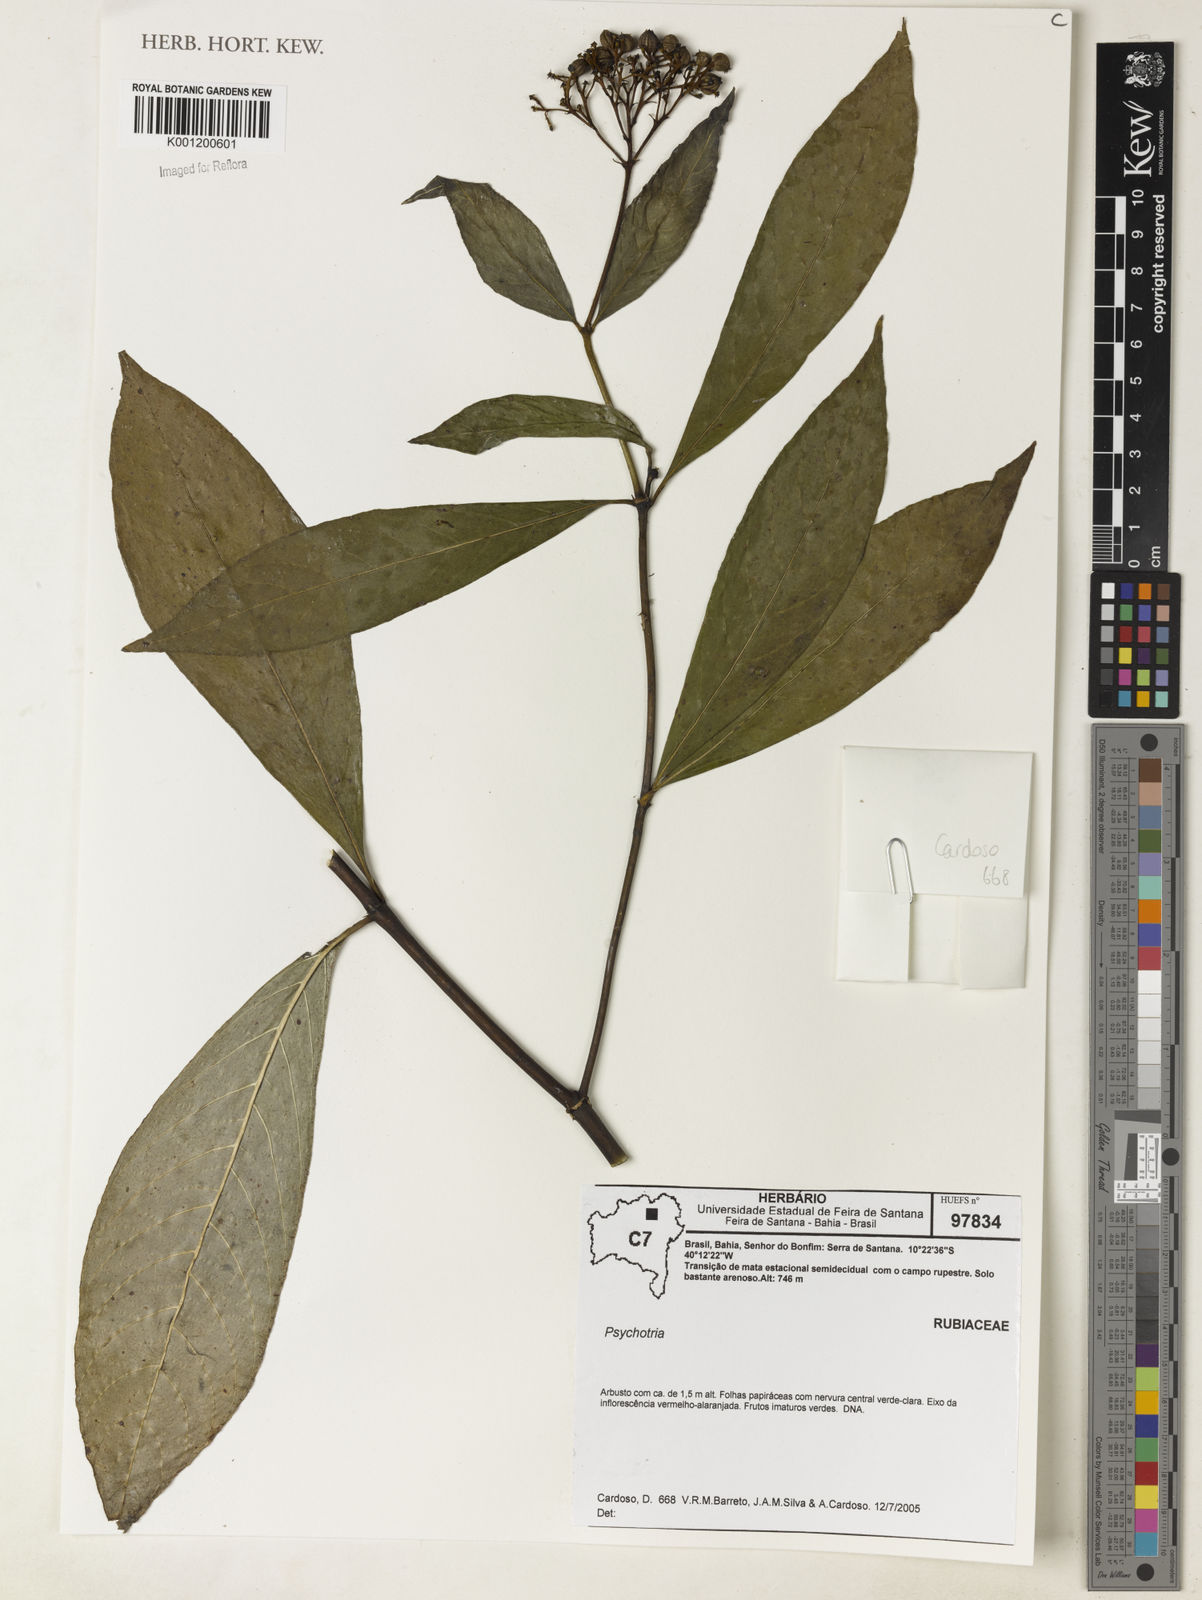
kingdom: Plantae
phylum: Tracheophyta
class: Magnoliopsida
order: Gentianales
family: Rubiaceae
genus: Psychotria
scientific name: Psychotria
